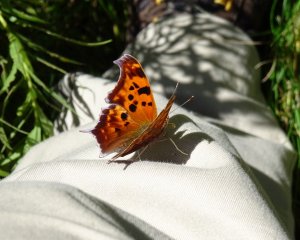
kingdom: Animalia
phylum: Arthropoda
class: Insecta
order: Lepidoptera
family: Nymphalidae
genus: Polygonia
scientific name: Polygonia interrogationis
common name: Question Mark
